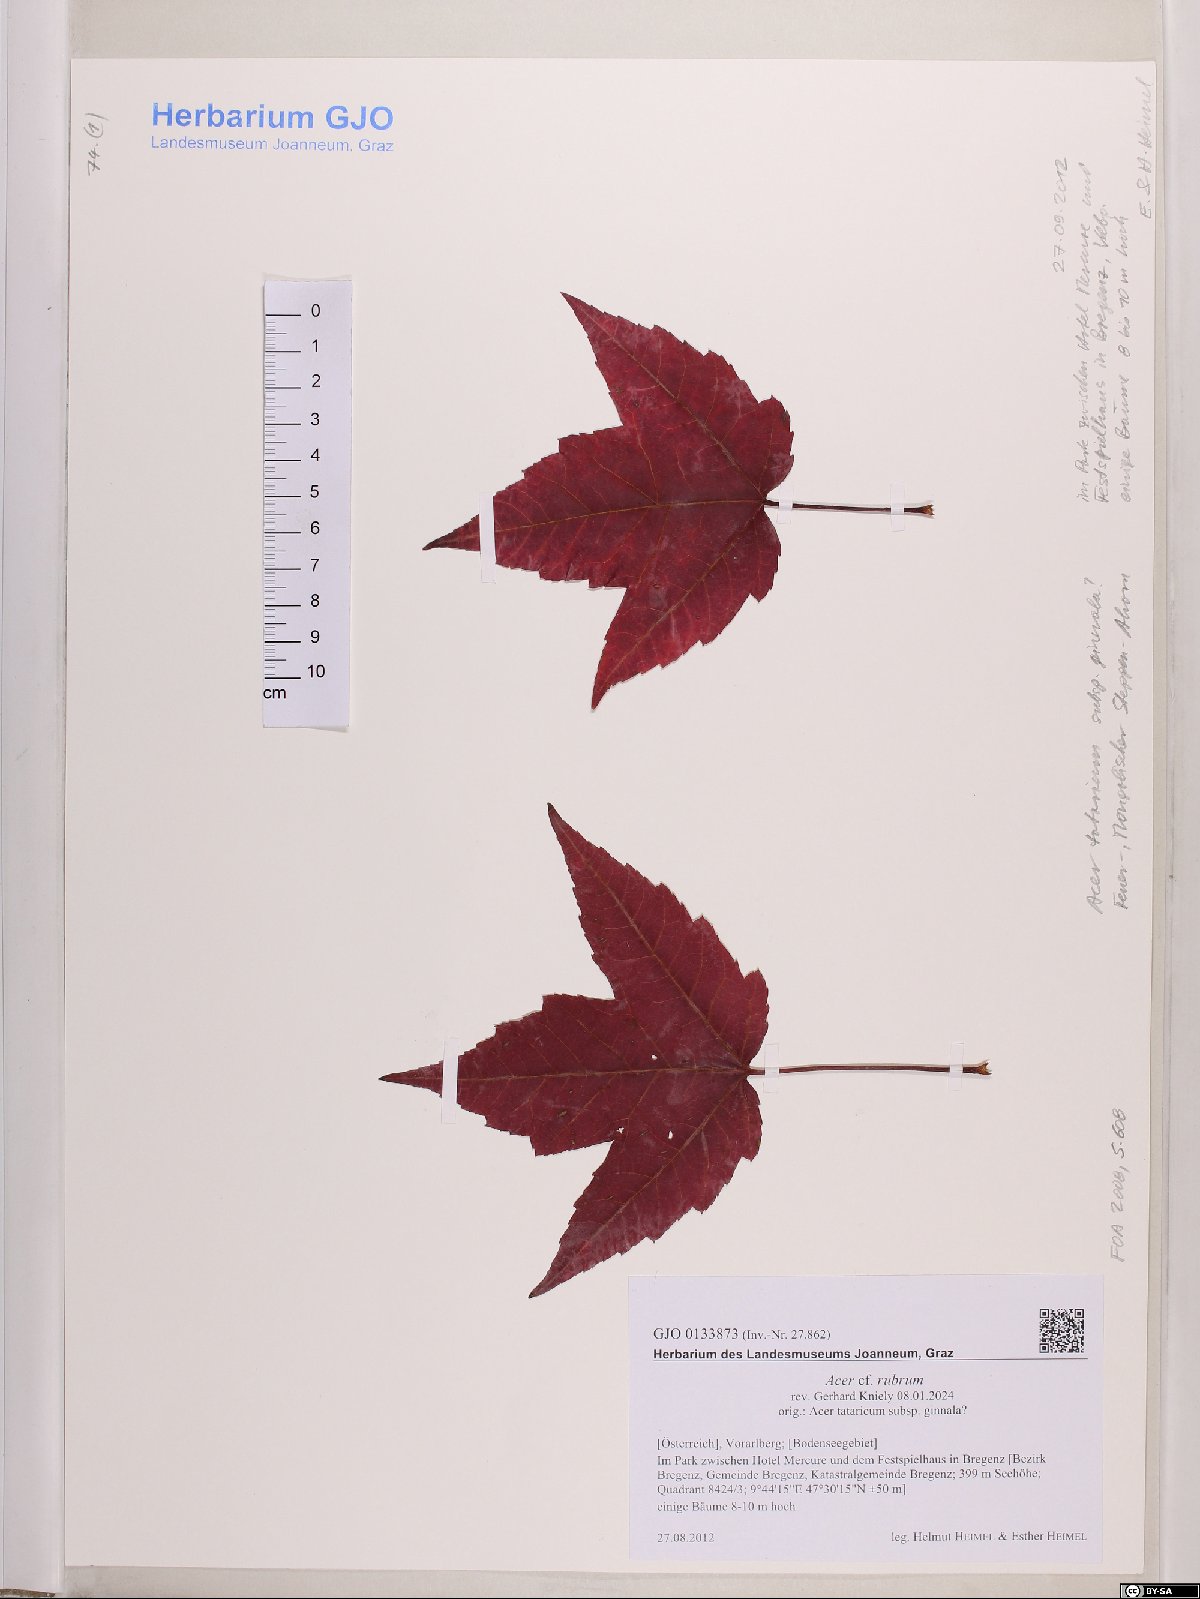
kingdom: Plantae
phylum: Tracheophyta
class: Magnoliopsida
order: Sapindales
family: Sapindaceae
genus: Acer
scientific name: Acer rubrum
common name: Red maple
